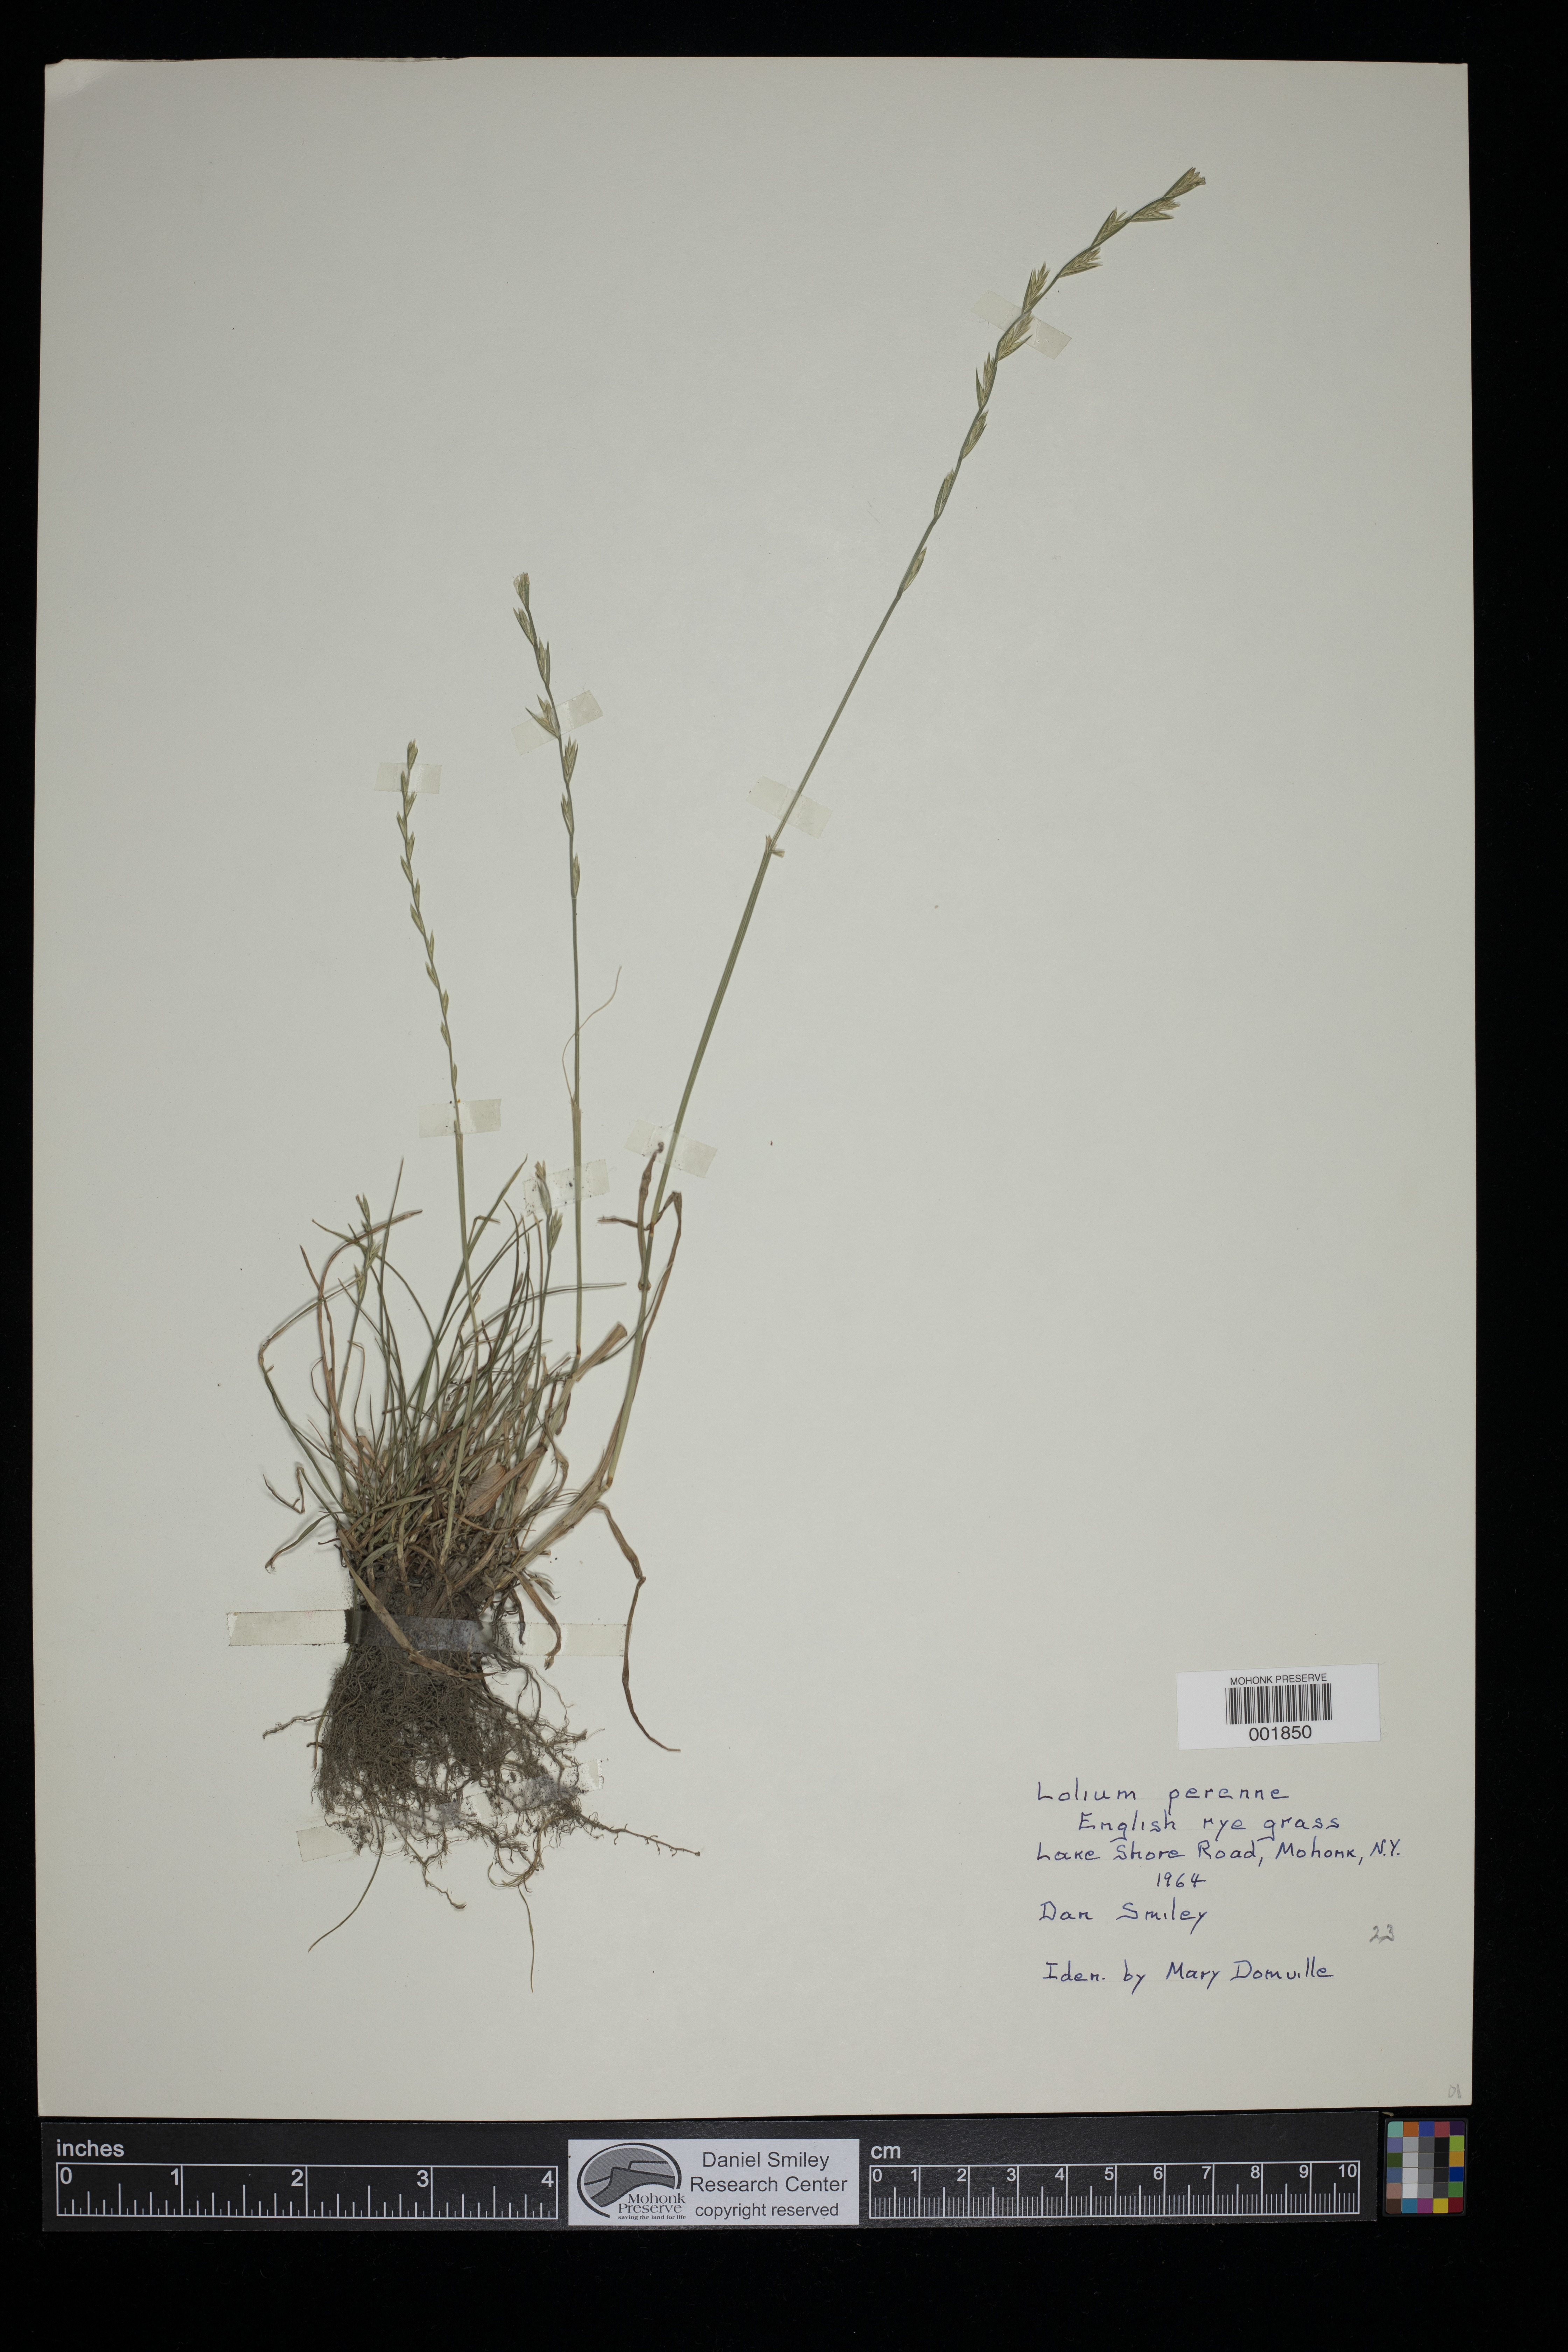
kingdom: Plantae
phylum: Tracheophyta
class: Liliopsida
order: Poales
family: Poaceae
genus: Lolium
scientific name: Lolium perenne
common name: Perennial ryegrass
